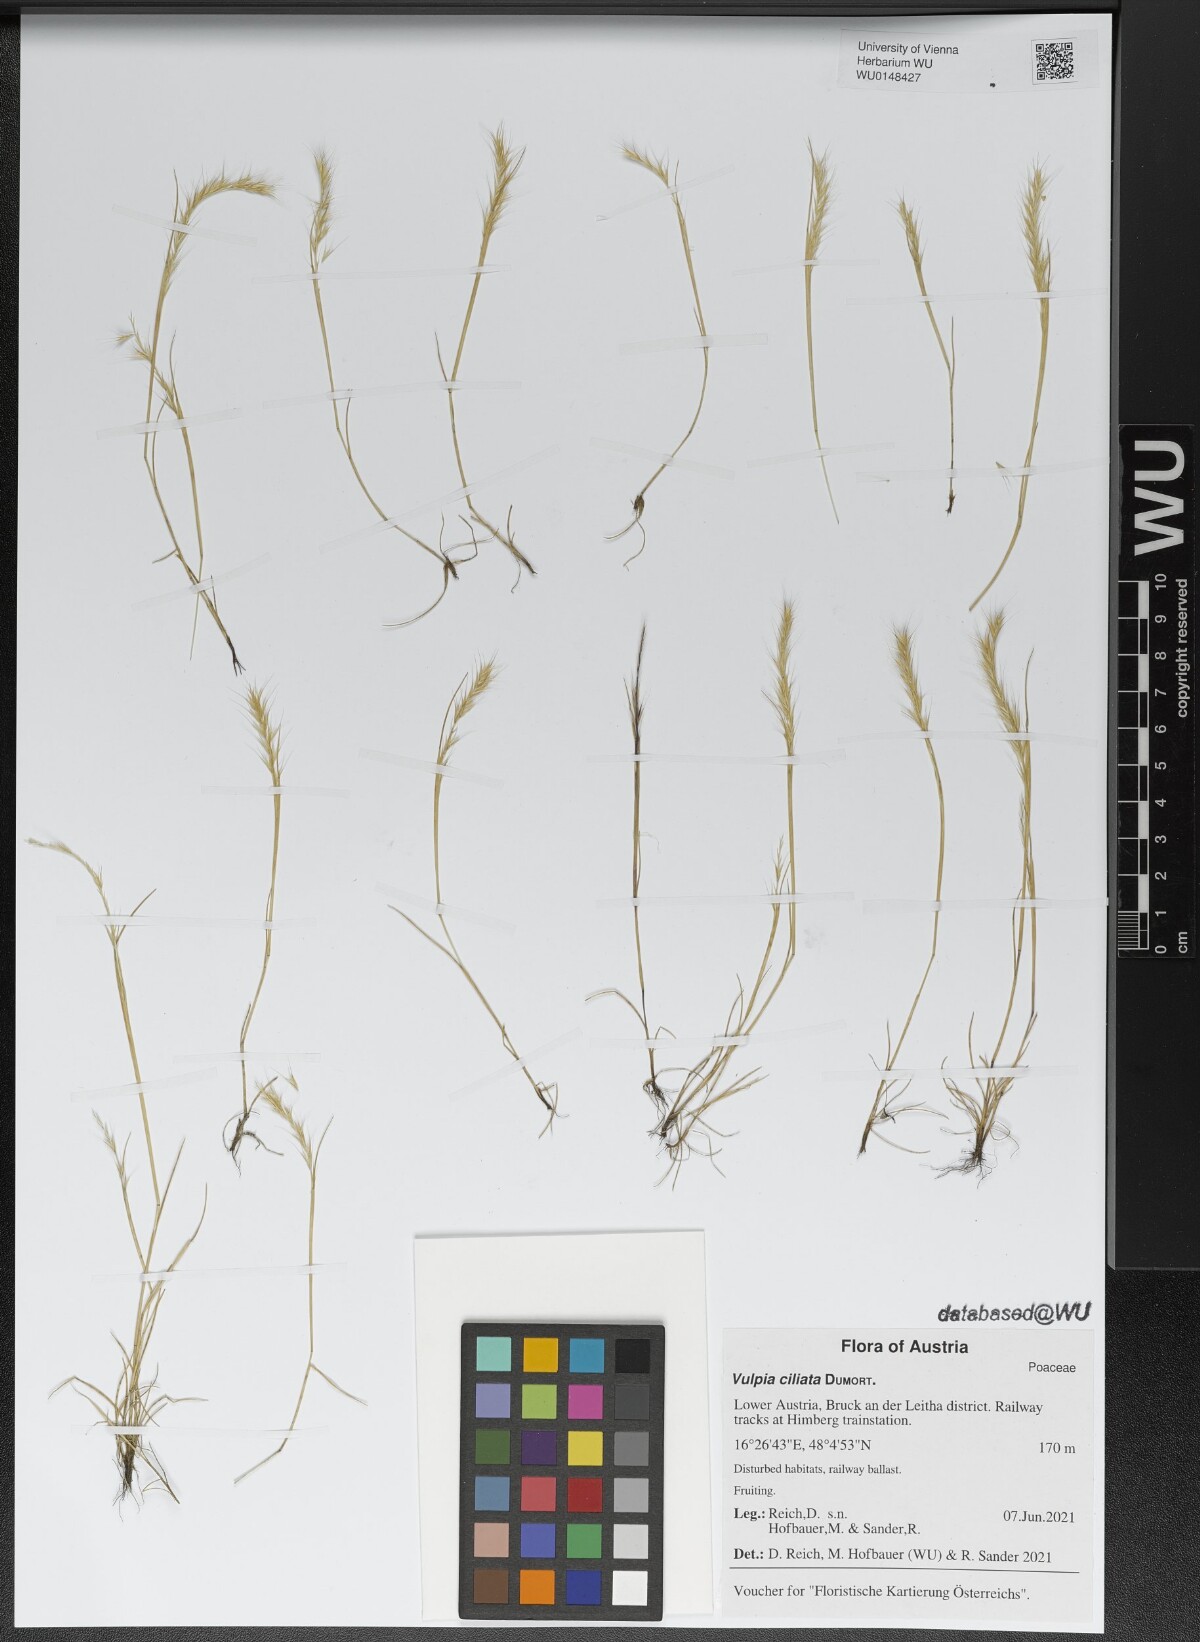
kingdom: Plantae
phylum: Tracheophyta
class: Liliopsida
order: Poales
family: Poaceae
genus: Festuca
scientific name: Festuca ambigua
